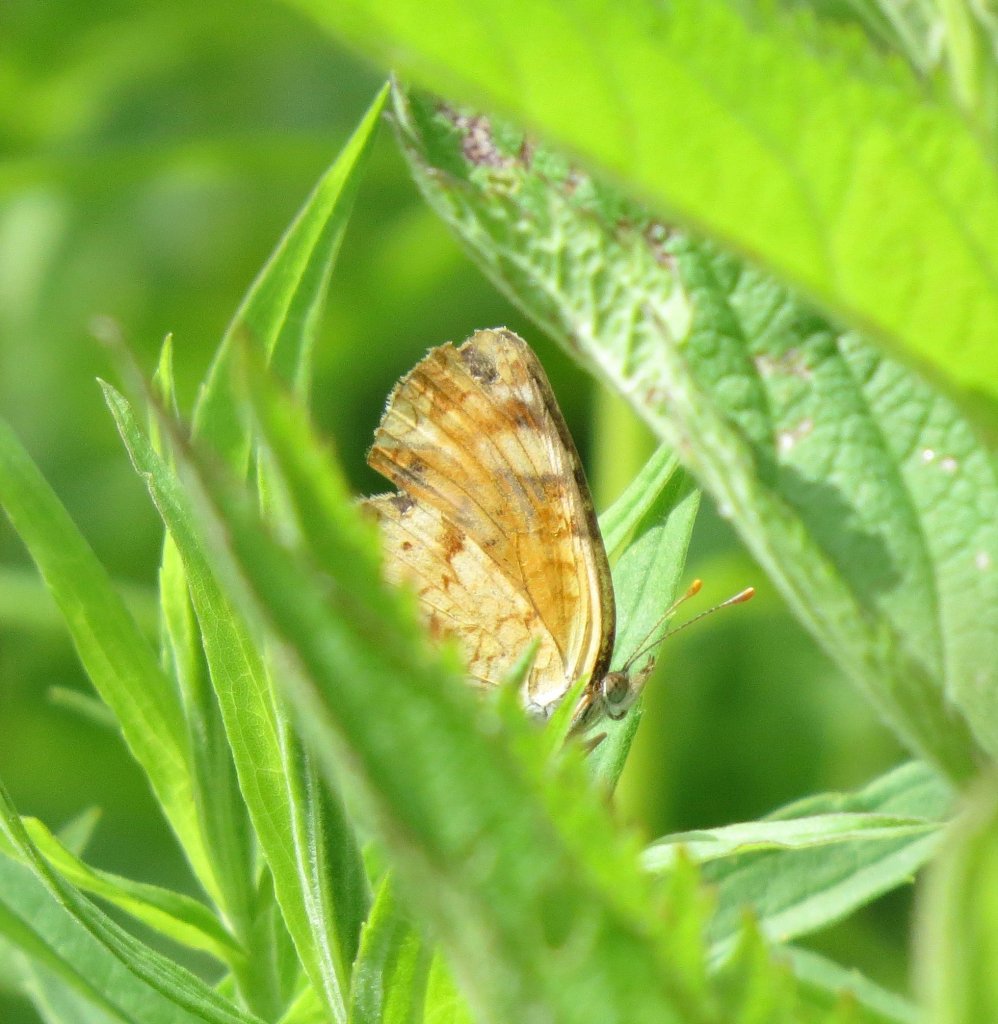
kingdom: Animalia
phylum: Arthropoda
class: Insecta
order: Lepidoptera
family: Nymphalidae
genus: Phyciodes
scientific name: Phyciodes tharos
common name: Pearl Crescent
